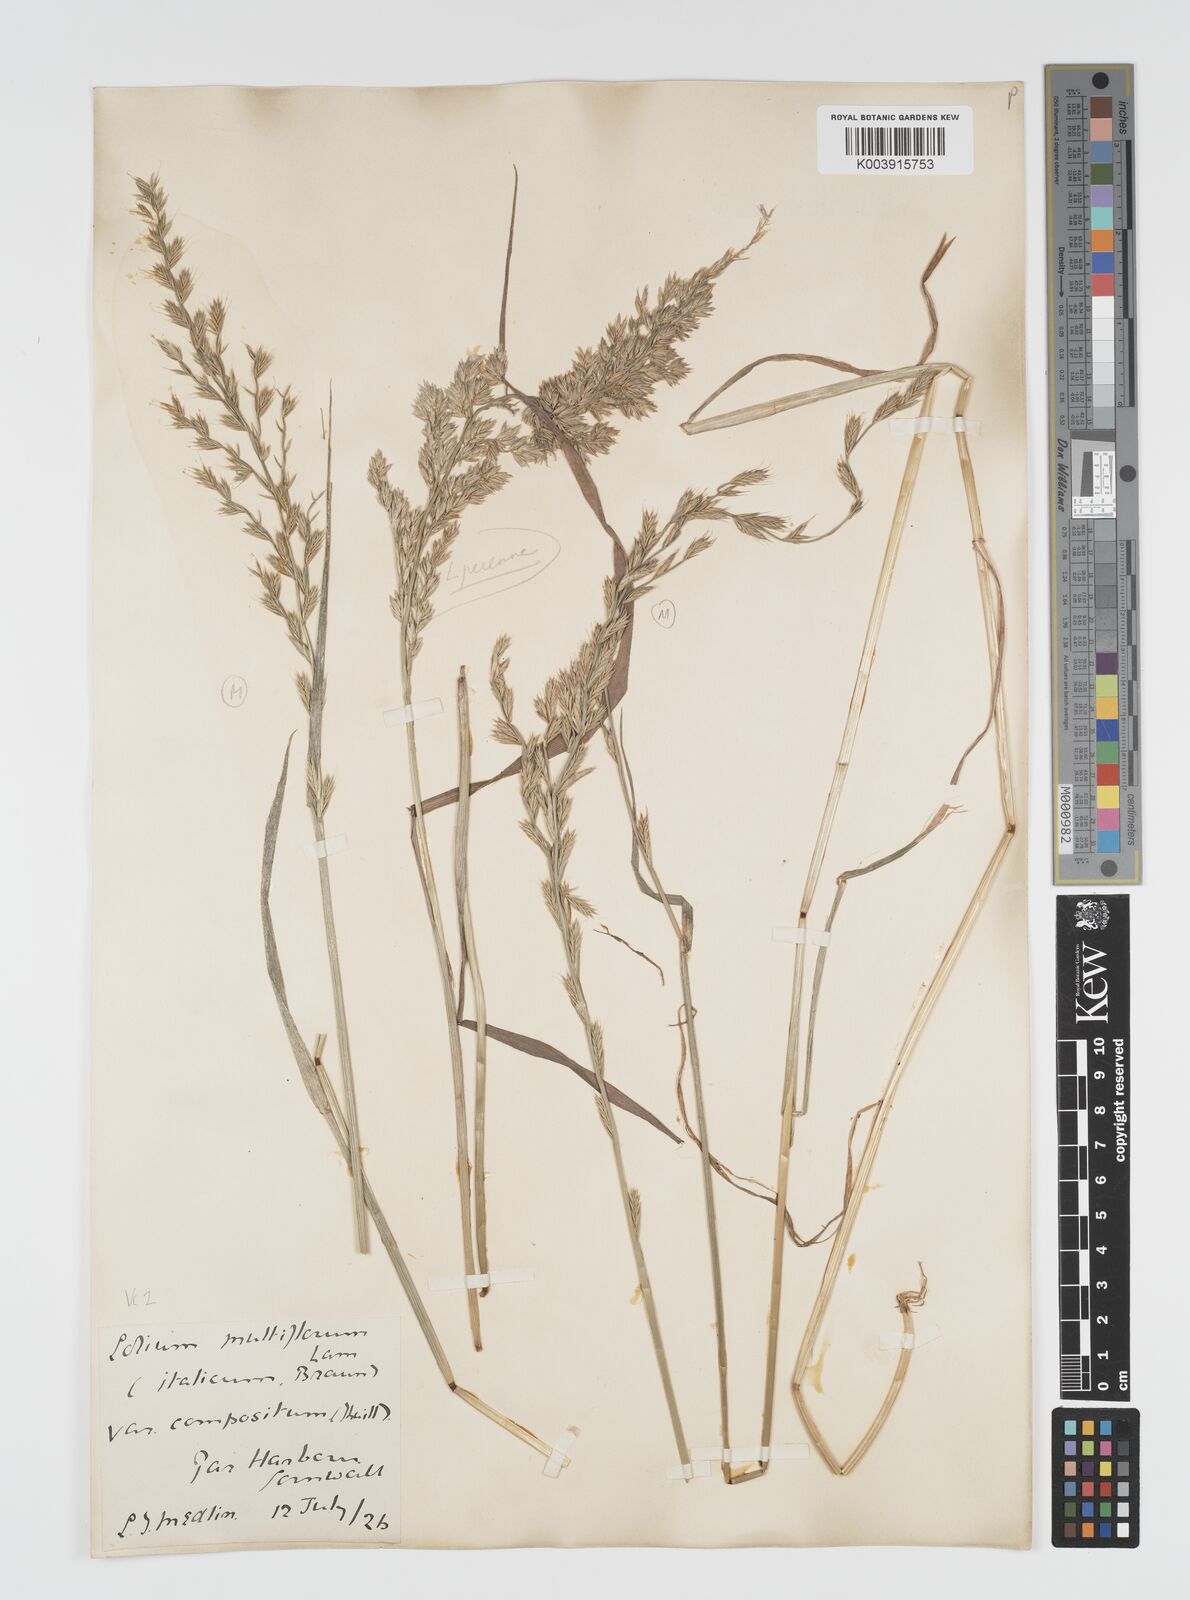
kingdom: Plantae
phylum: Tracheophyta
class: Liliopsida
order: Poales
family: Poaceae
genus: Lolium
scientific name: Lolium multiflorum
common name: Annual ryegrass
